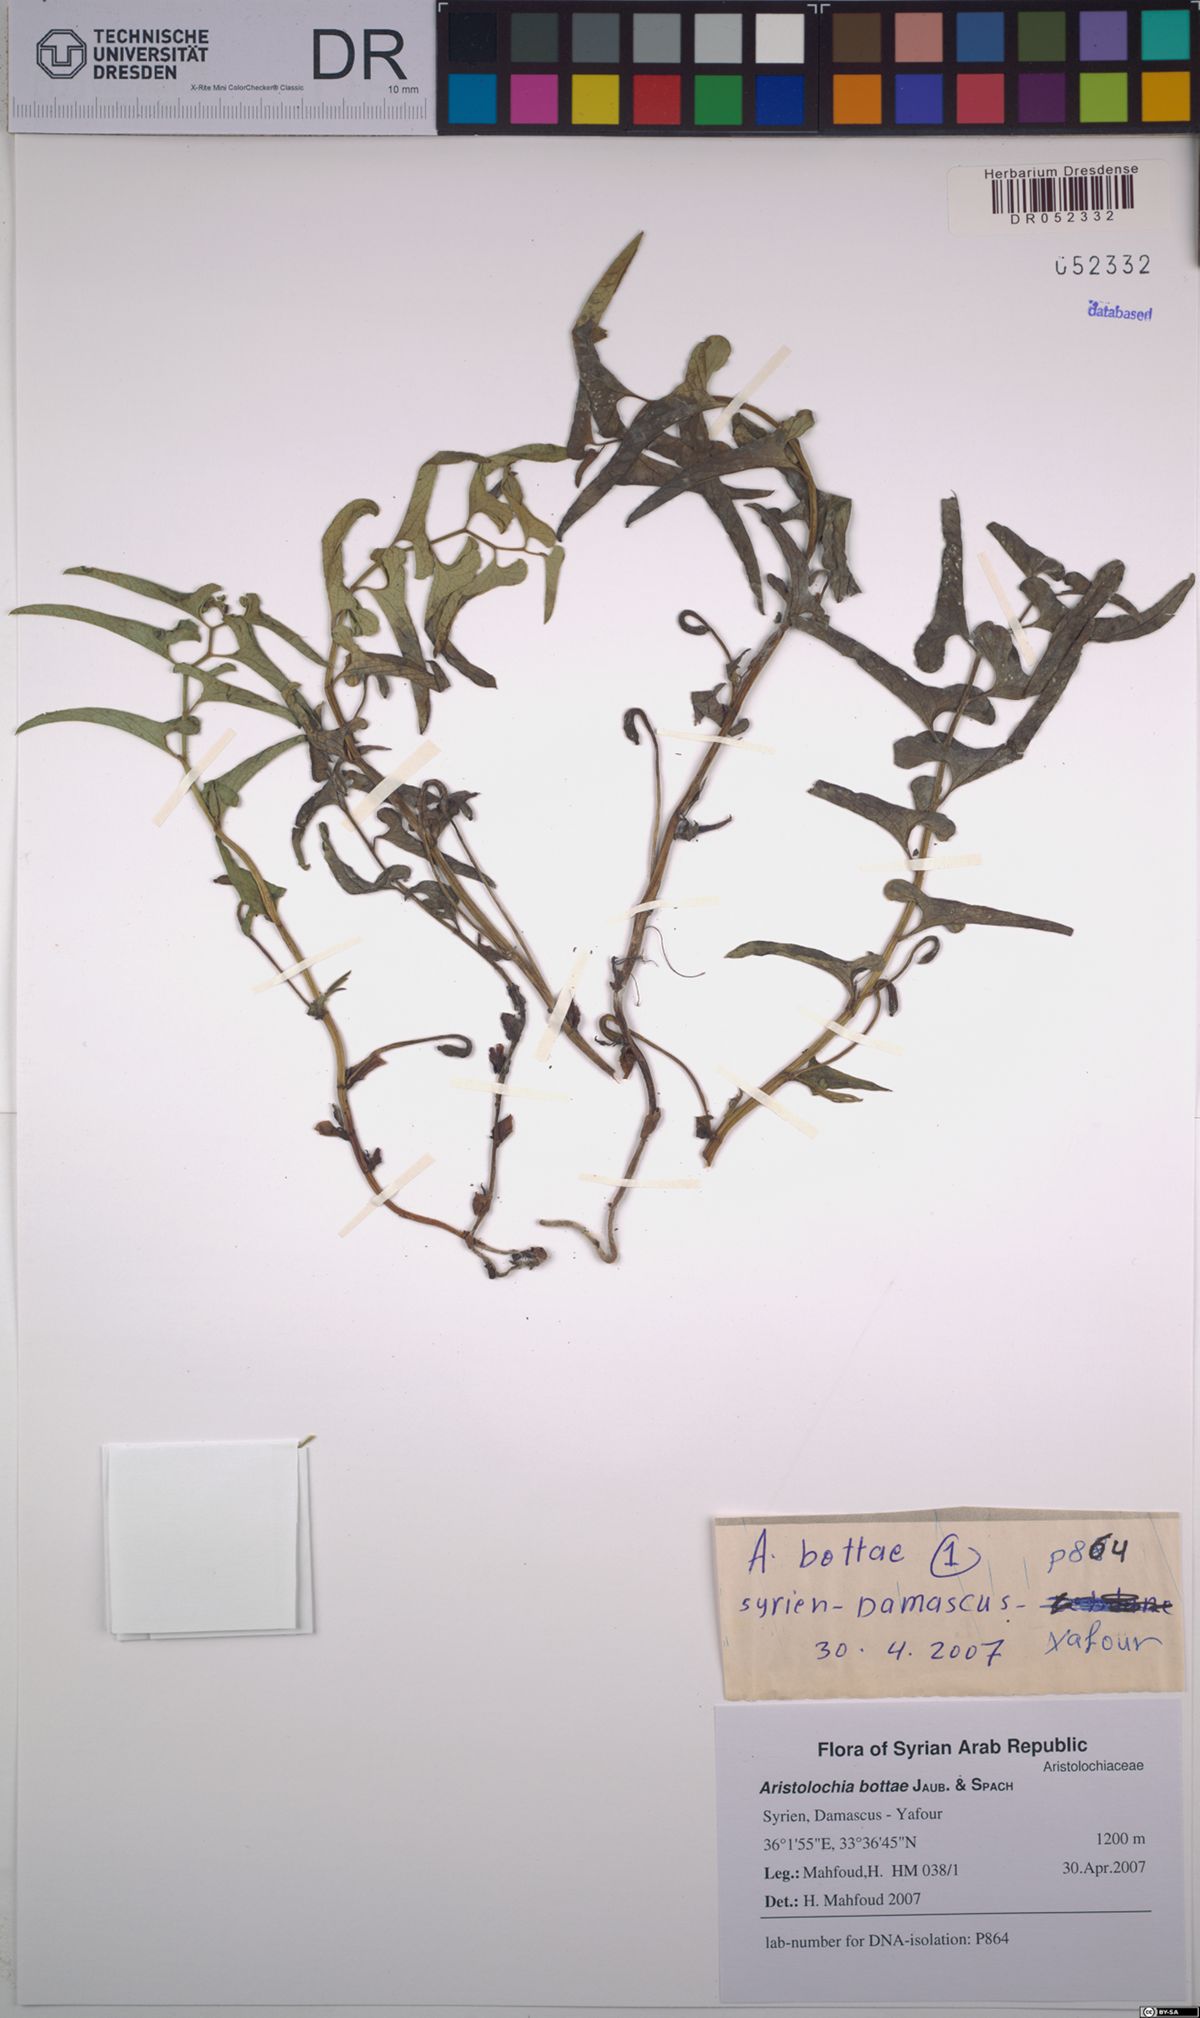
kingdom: Plantae
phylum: Tracheophyta
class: Magnoliopsida
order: Piperales
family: Aristolochiaceae
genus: Aristolochia
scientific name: Aristolochia bottae
